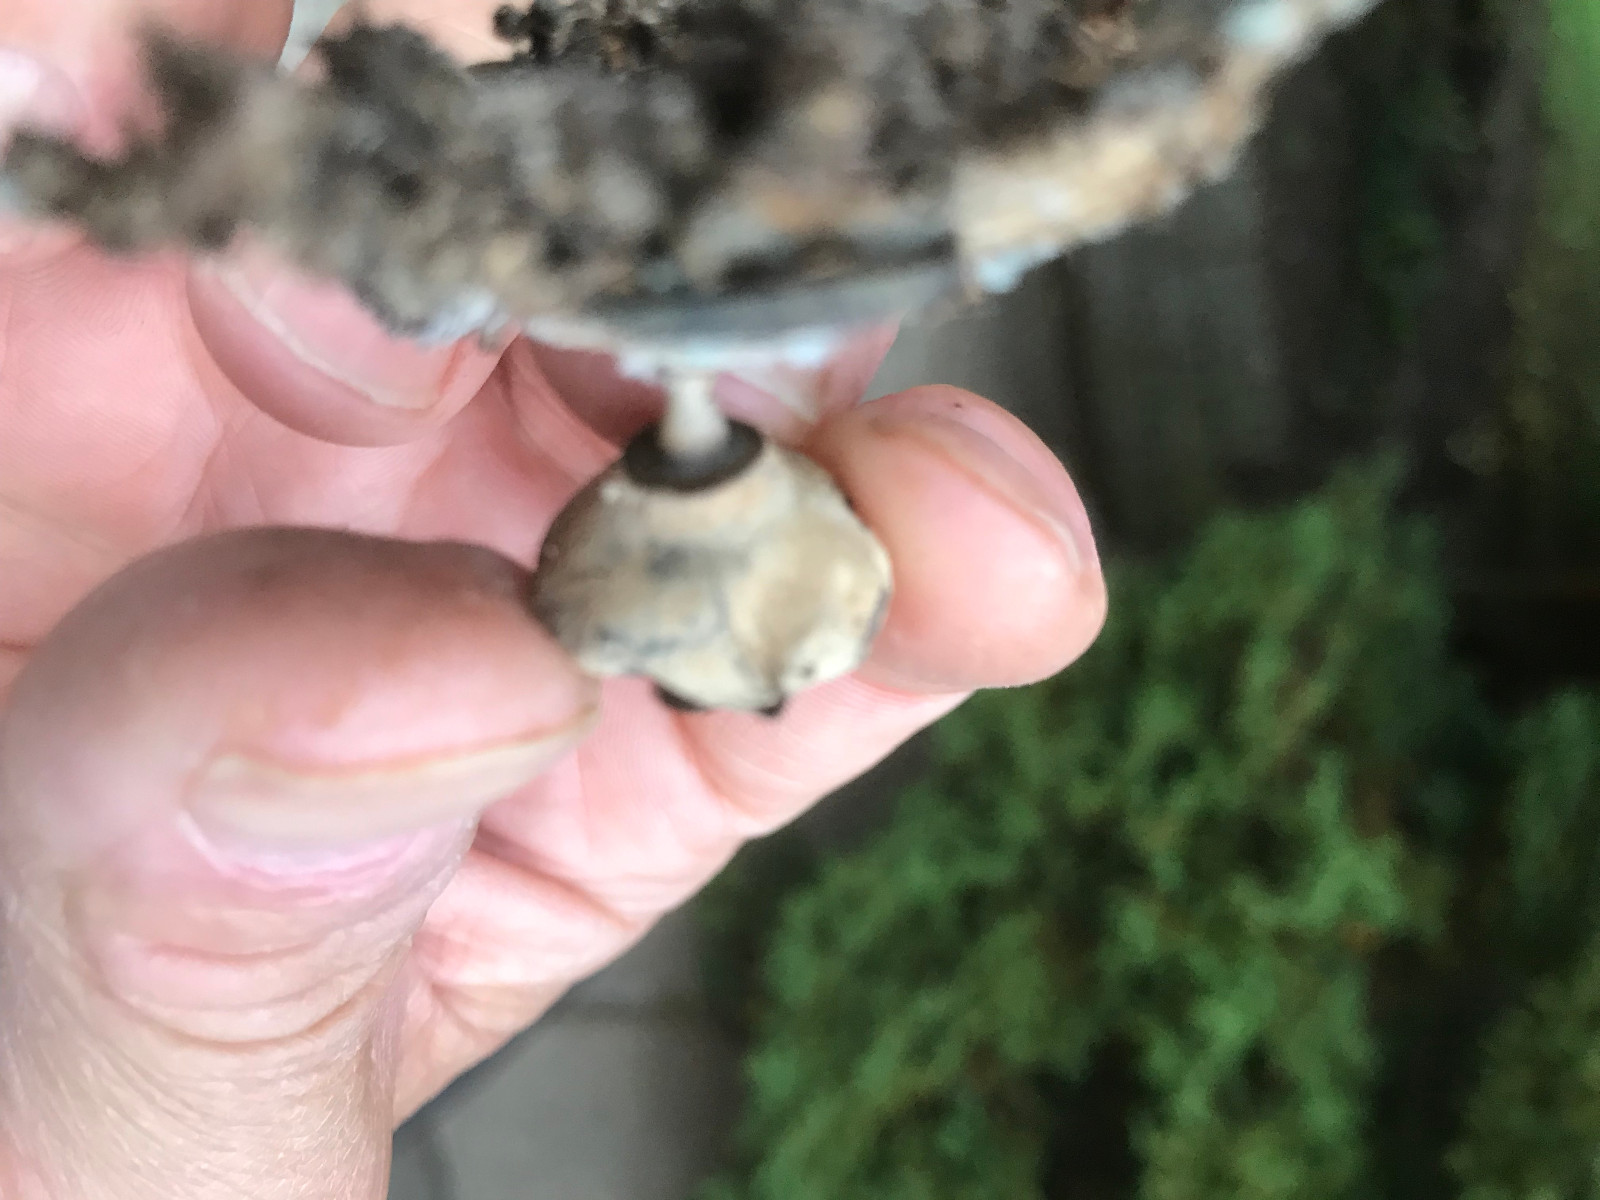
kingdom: Fungi
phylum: Basidiomycota
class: Agaricomycetes
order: Geastrales
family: Geastraceae
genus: Geastrum
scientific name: Geastrum striatum
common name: krave-stjernebold
